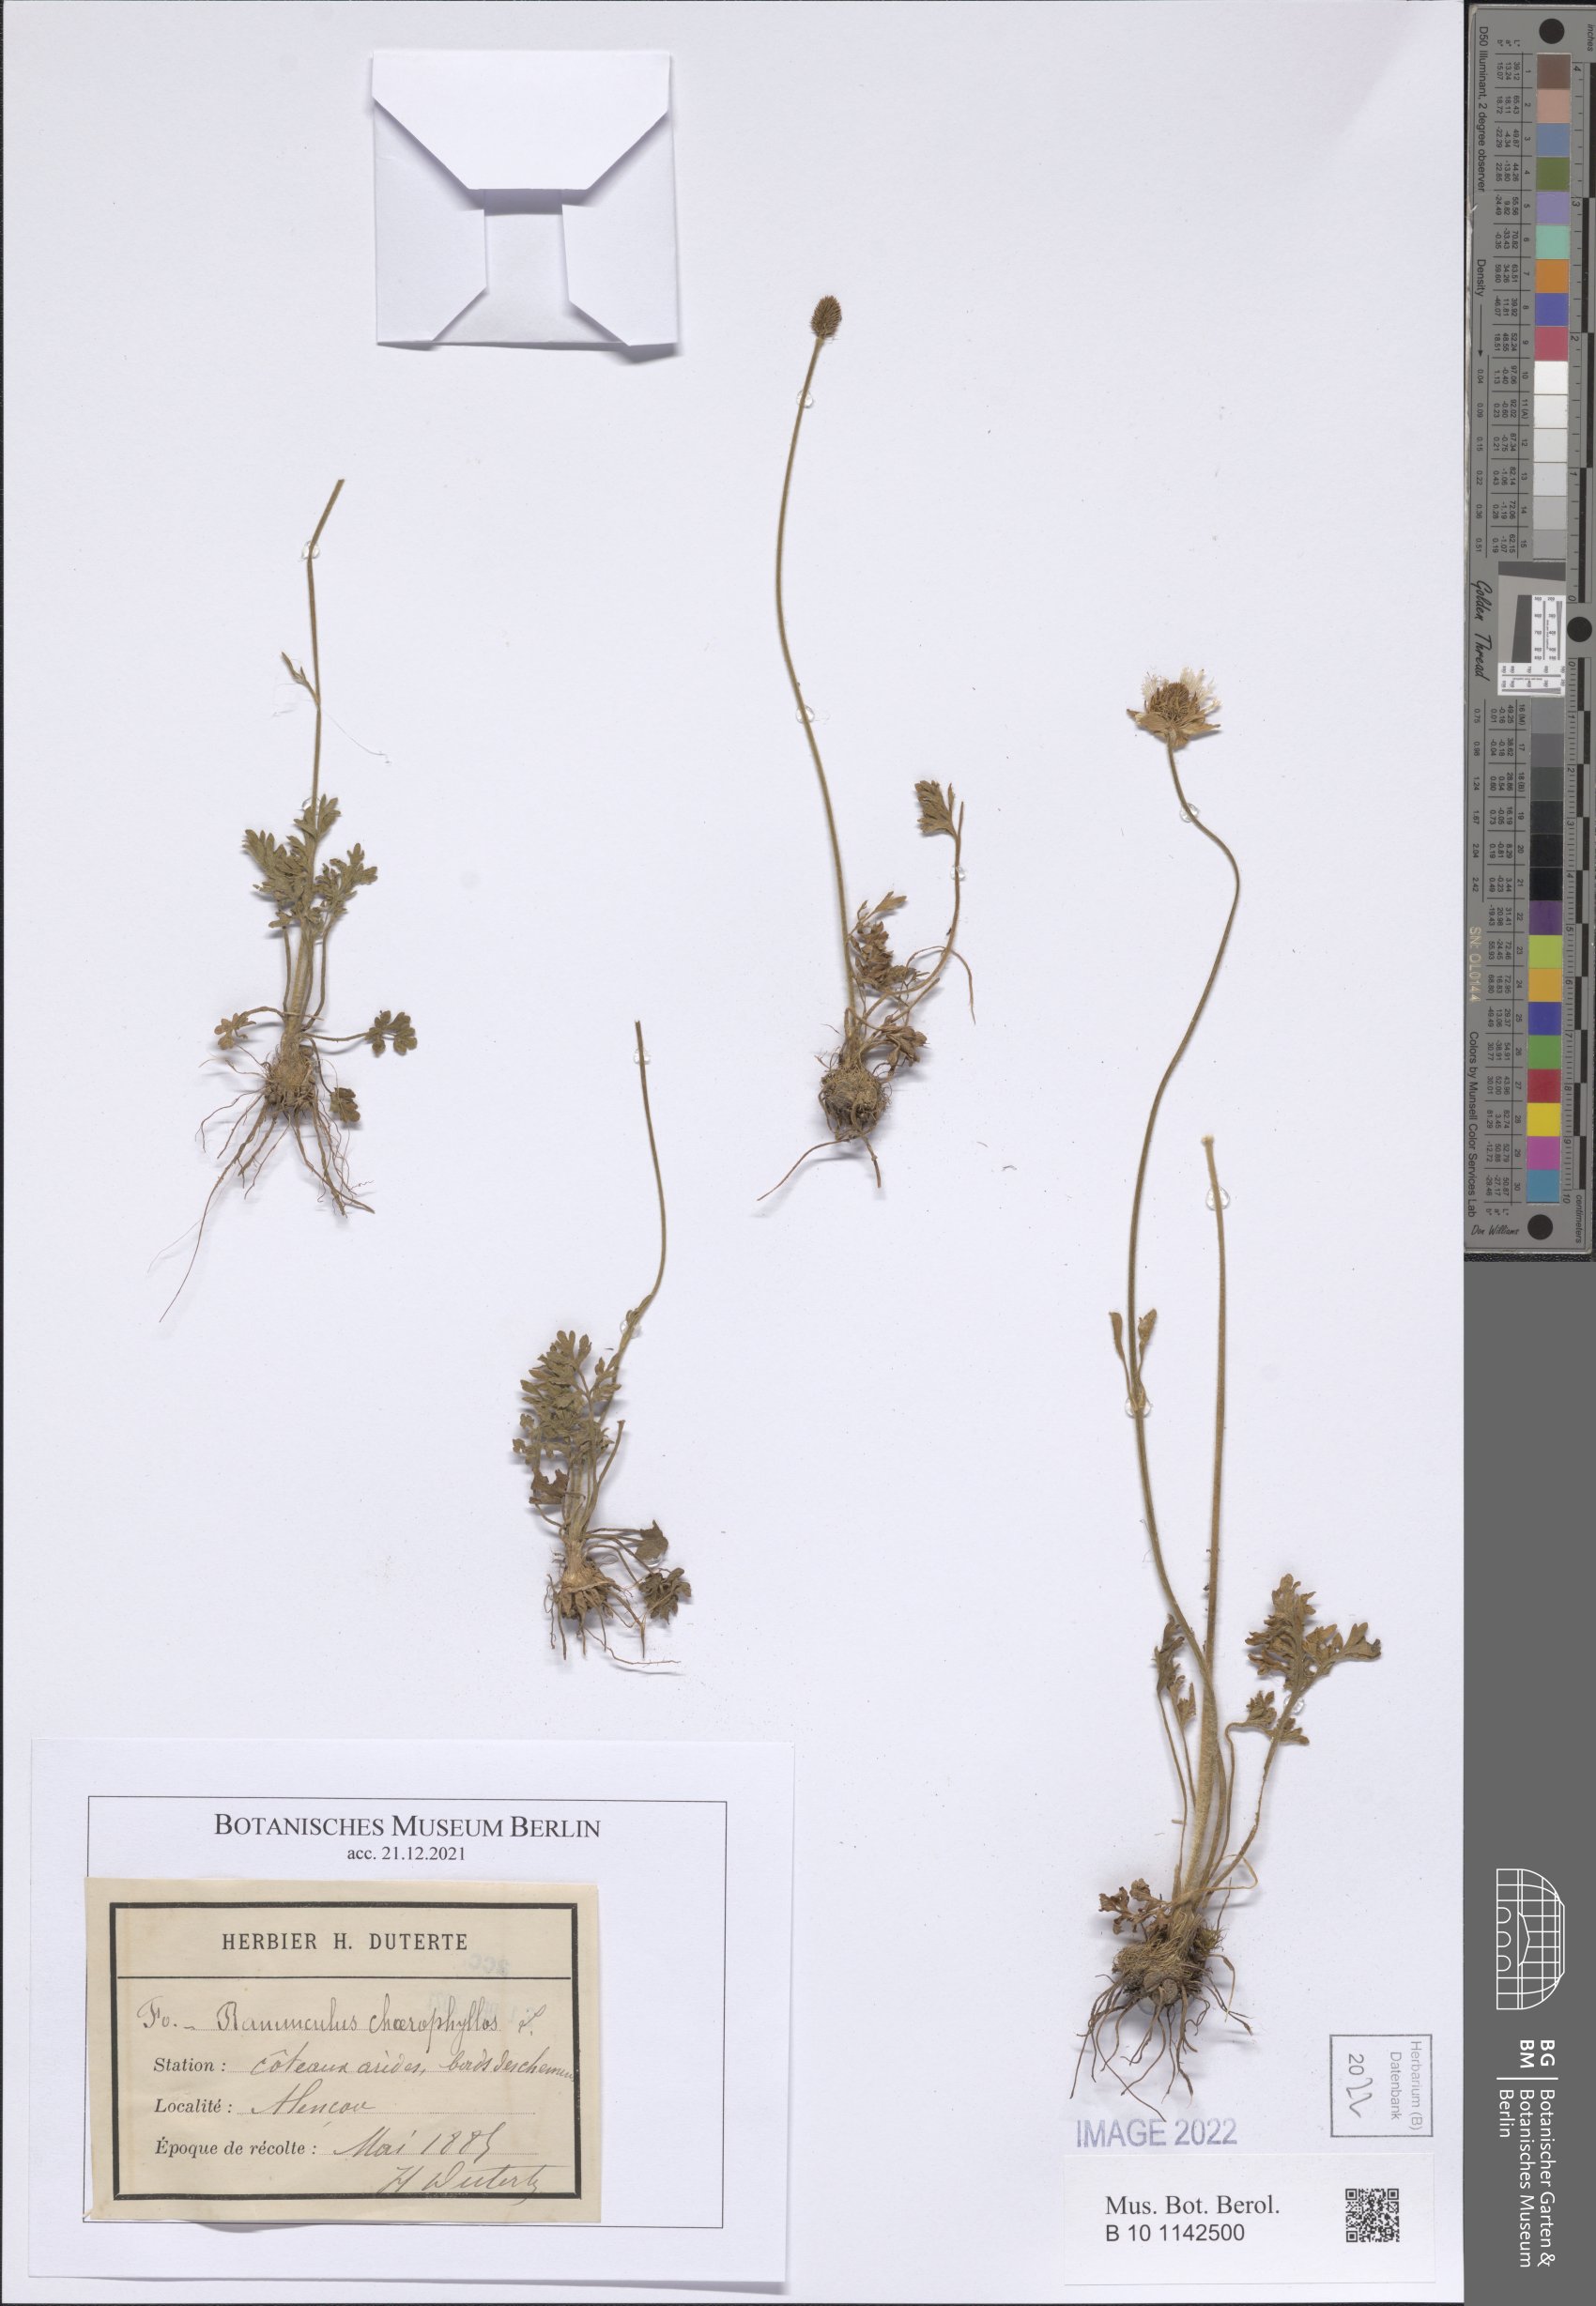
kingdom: Plantae
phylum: Tracheophyta
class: Magnoliopsida
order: Ranunculales
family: Ranunculaceae
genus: Ranunculus
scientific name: Ranunculus chaerophyllos
